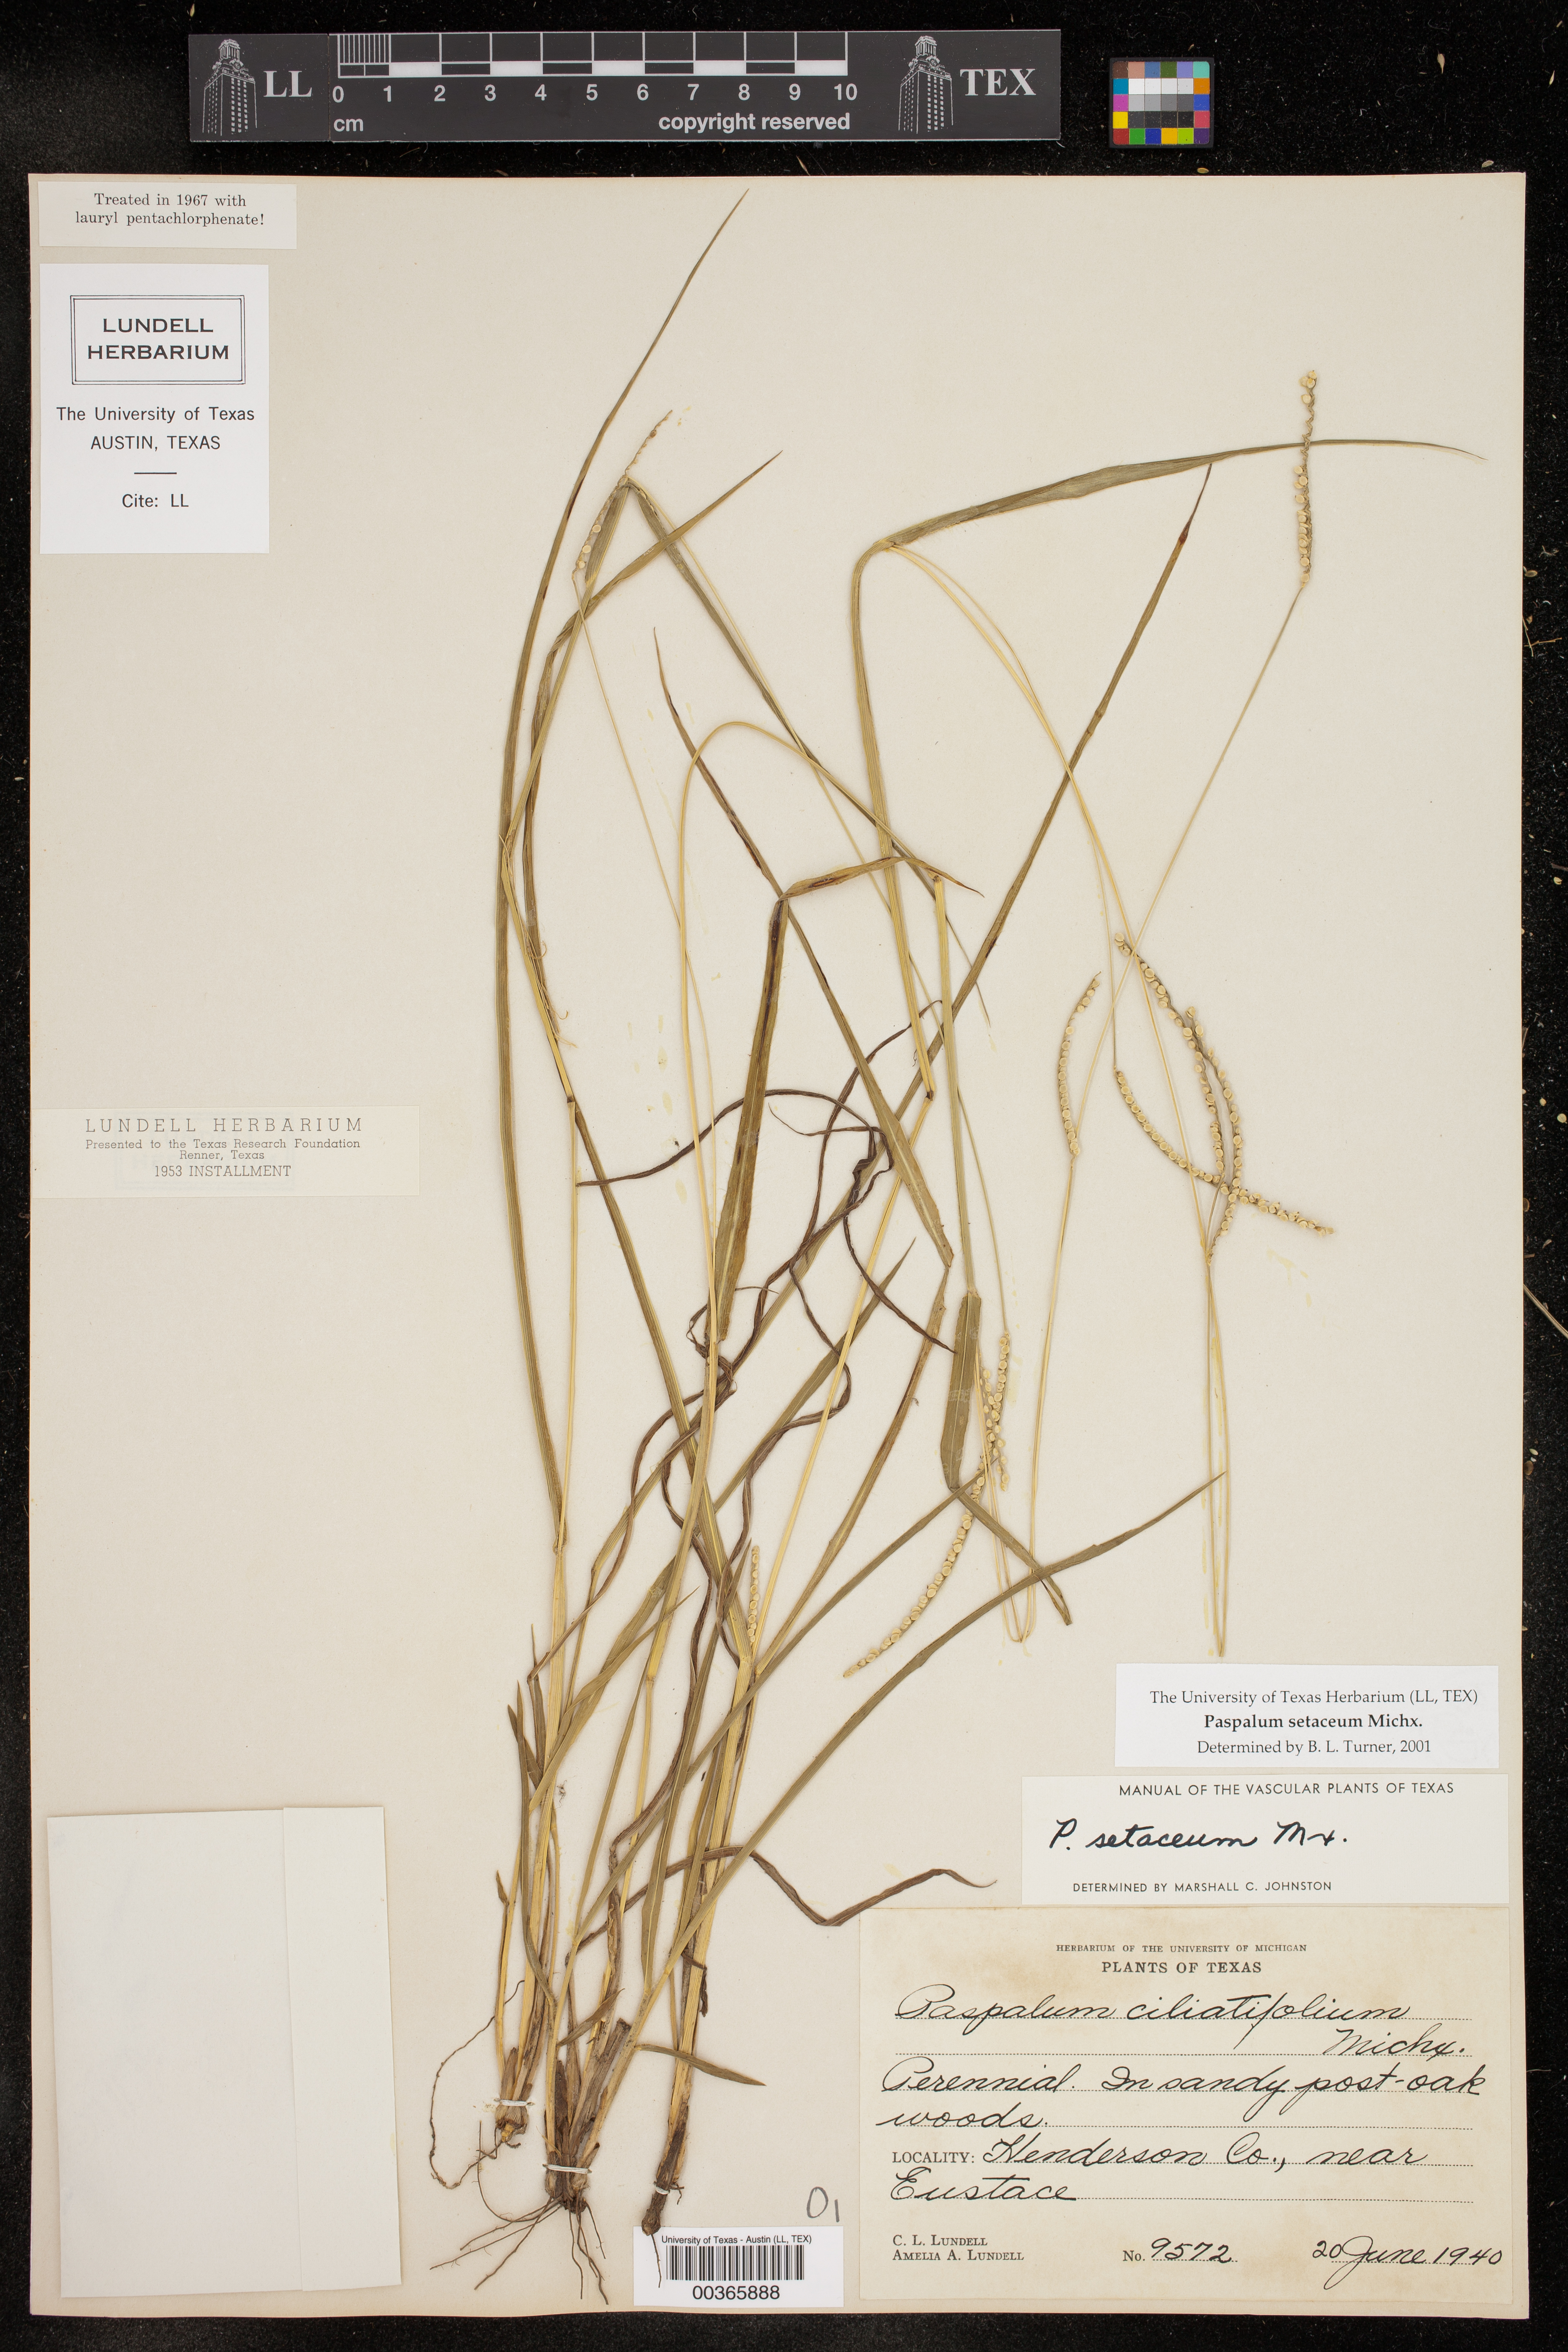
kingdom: Plantae
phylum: Tracheophyta
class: Liliopsida
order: Poales
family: Poaceae
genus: Paspalum
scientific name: Paspalum setaceum
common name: Slender paspalum
